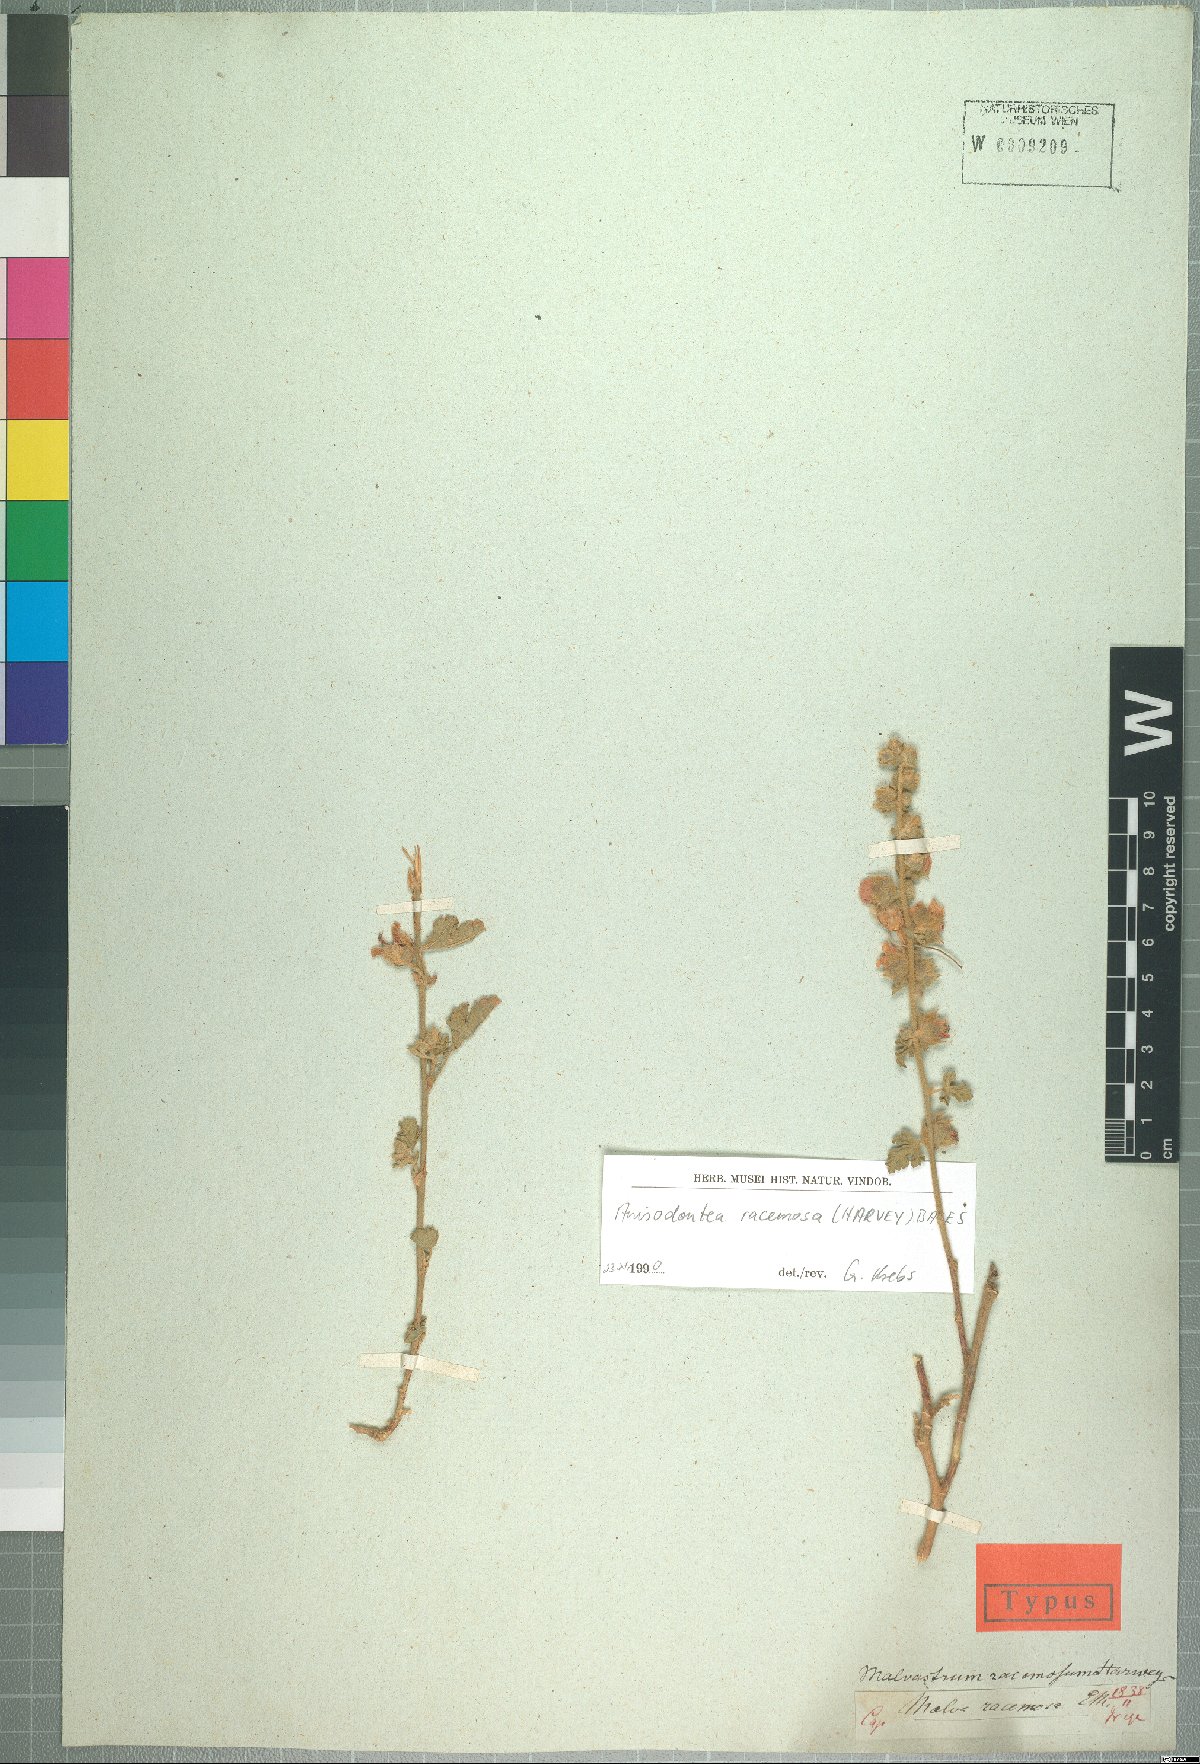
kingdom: Plantae
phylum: Tracheophyta
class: Magnoliopsida
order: Malvales
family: Malvaceae
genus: Anisodontea
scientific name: Anisodontea racemosa
